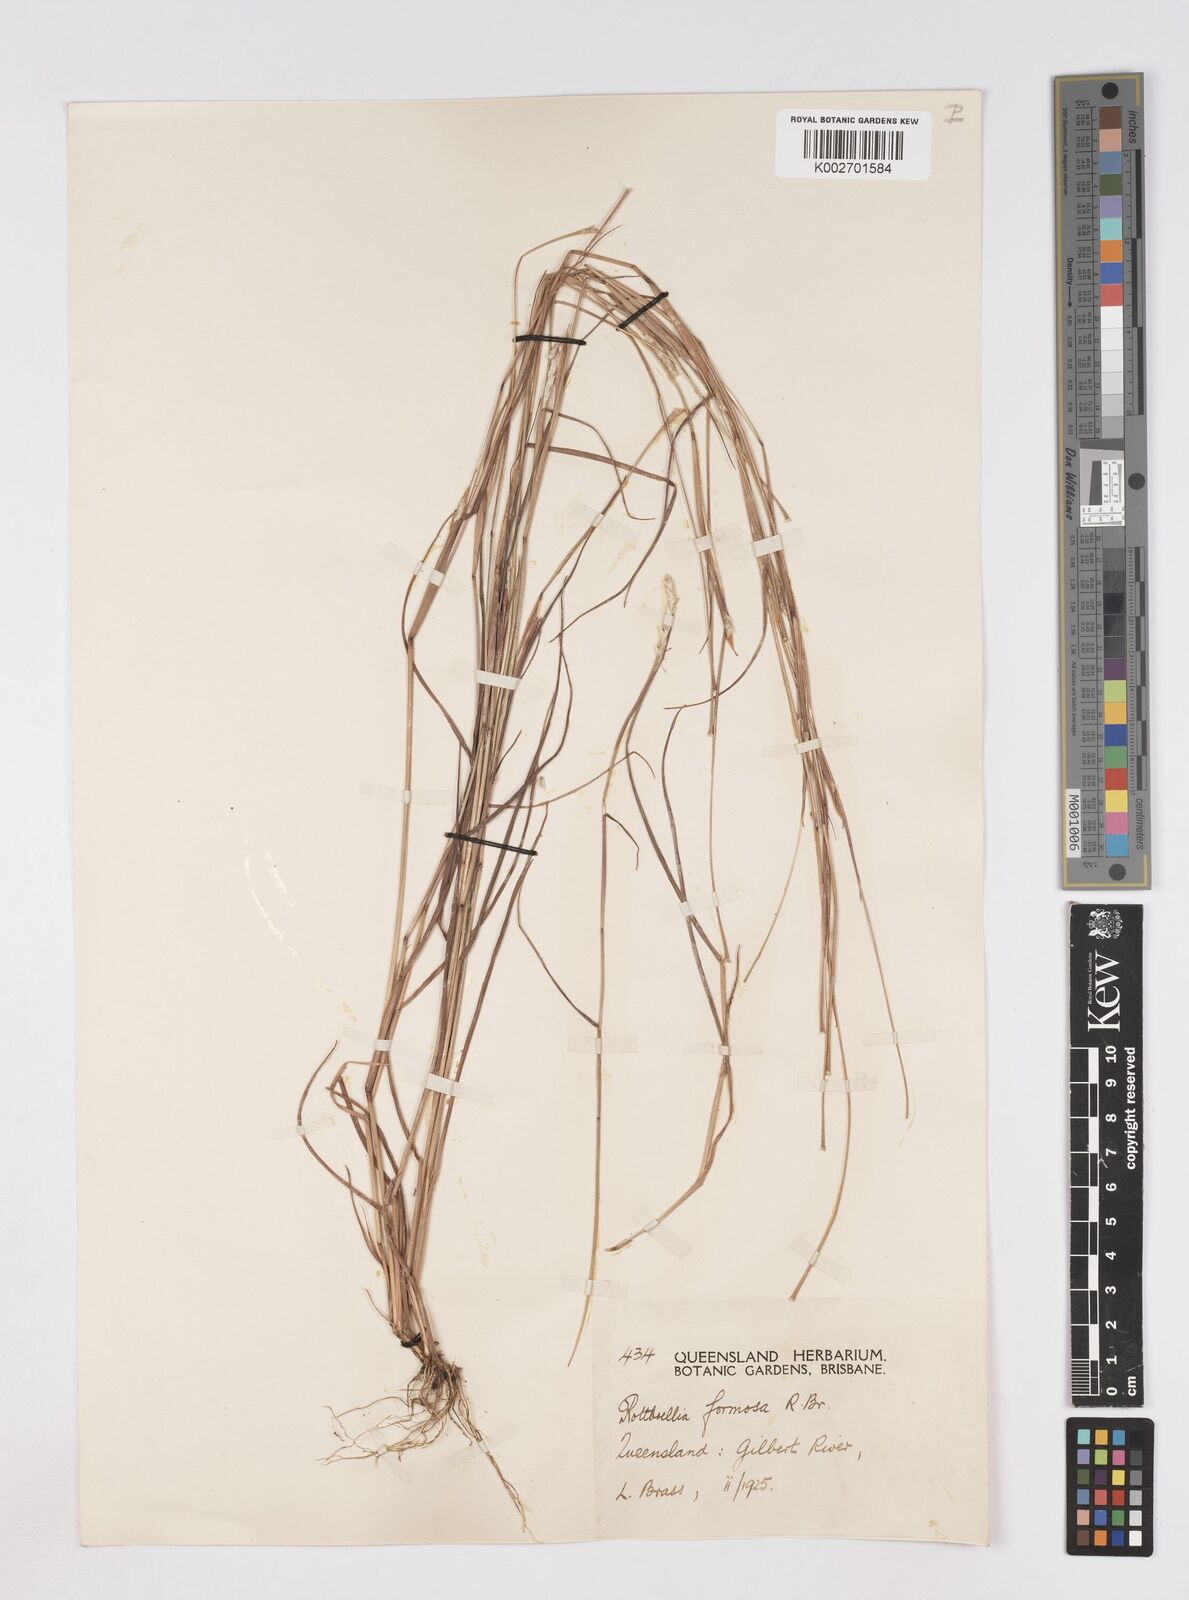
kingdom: Plantae
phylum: Tracheophyta
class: Liliopsida
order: Poales
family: Poaceae
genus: Heteropholis
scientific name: Heteropholis
